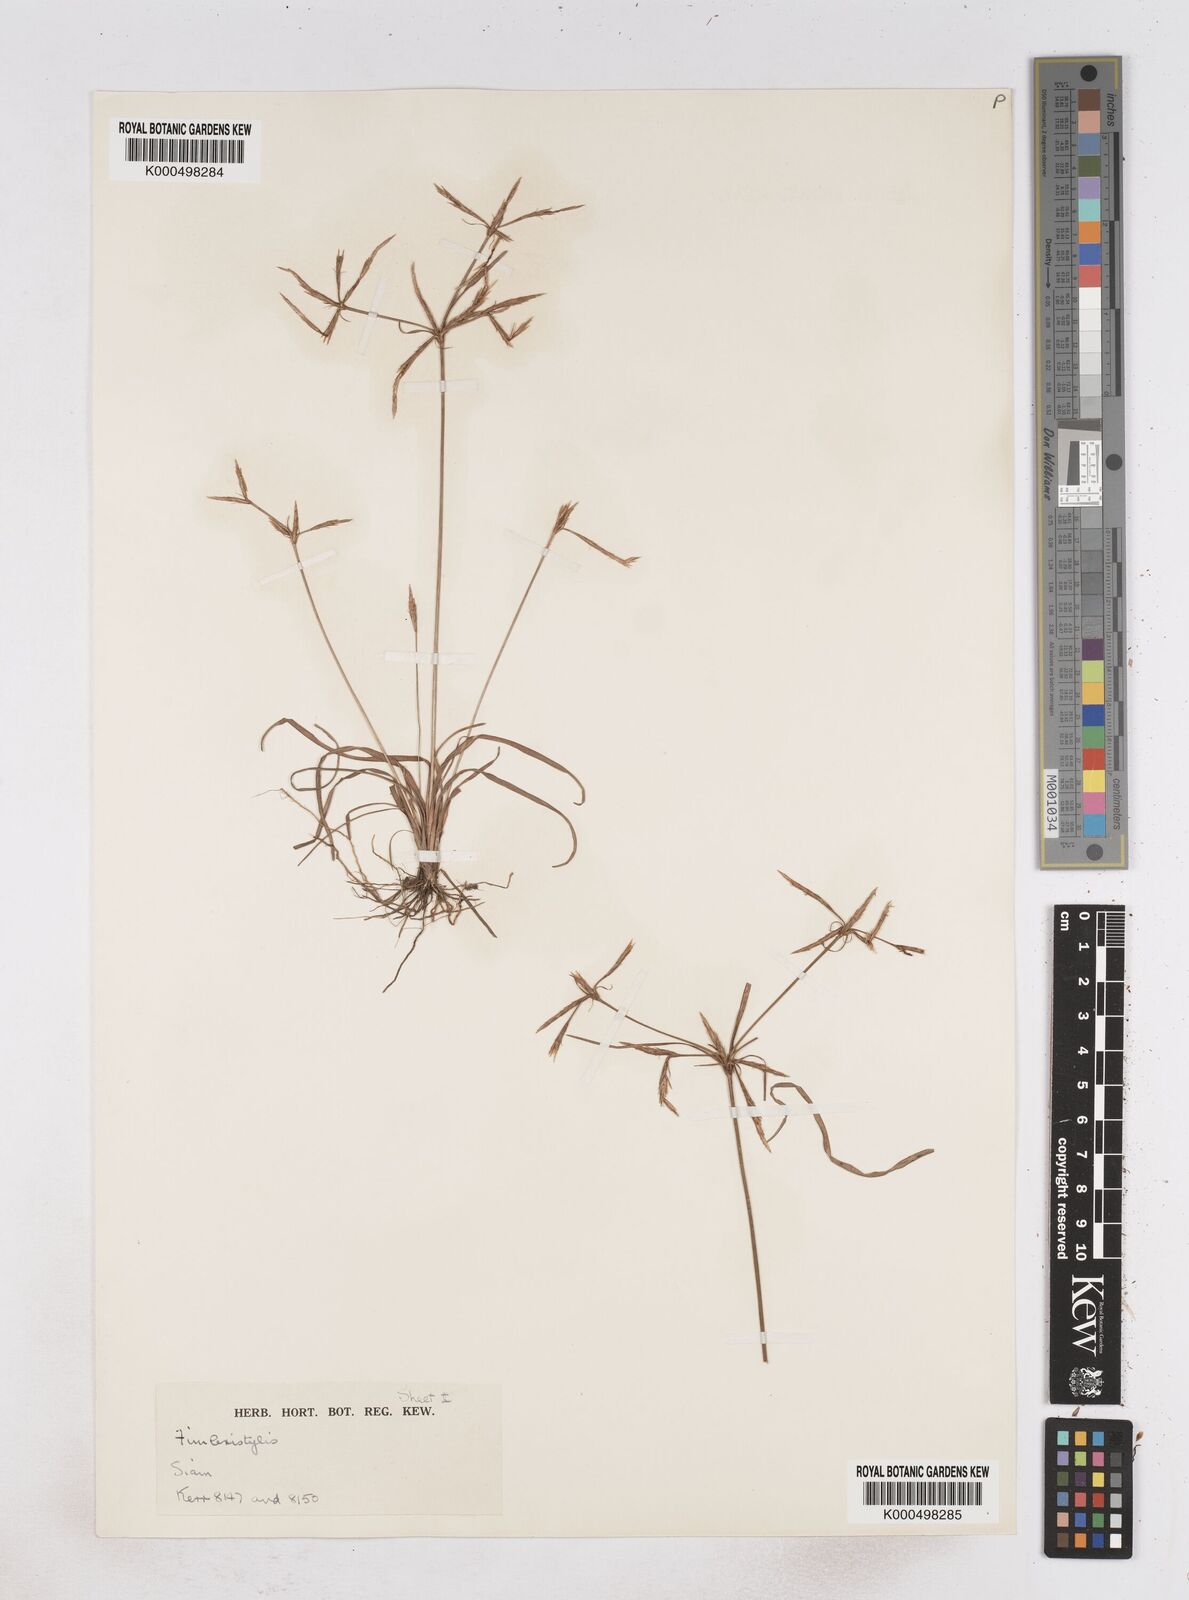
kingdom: Plantae
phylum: Tracheophyta
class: Liliopsida
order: Poales
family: Cyperaceae
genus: Fimbristylis
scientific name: Fimbristylis hookeriana
